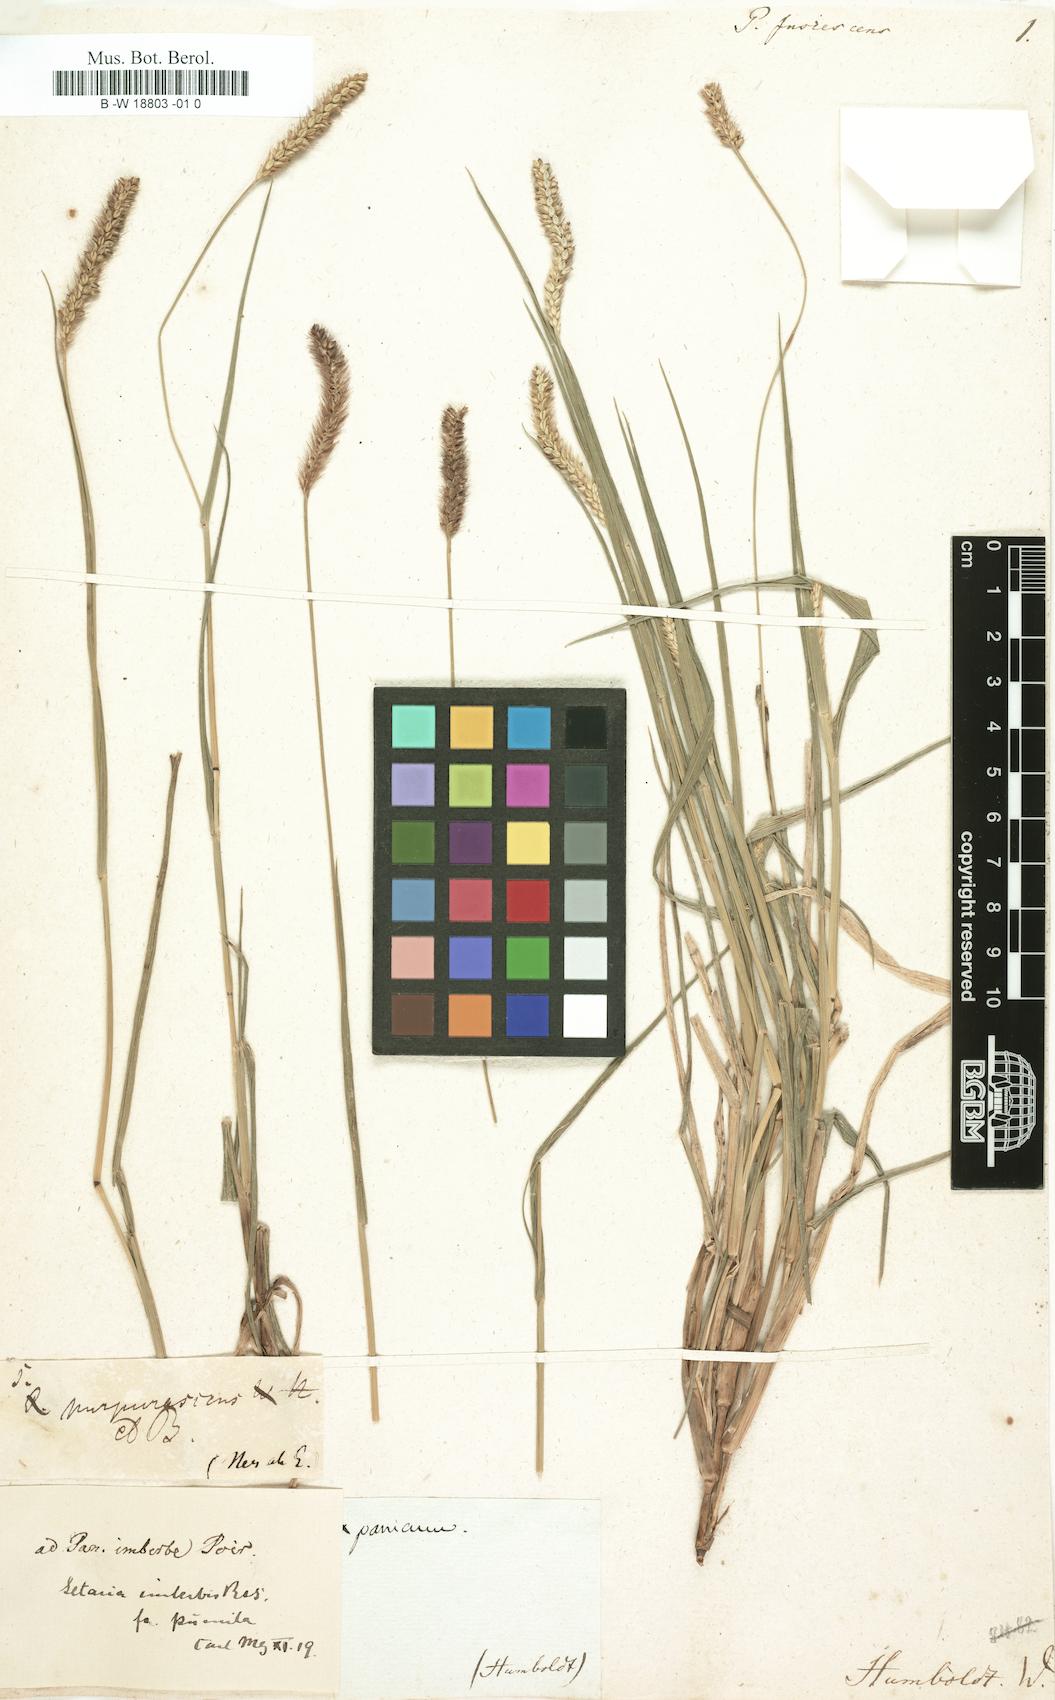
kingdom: Plantae
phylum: Tracheophyta
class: Liliopsida
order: Poales
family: Poaceae
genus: Setaria
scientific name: Setaria parviflora
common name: Knotroot bristle-grass
